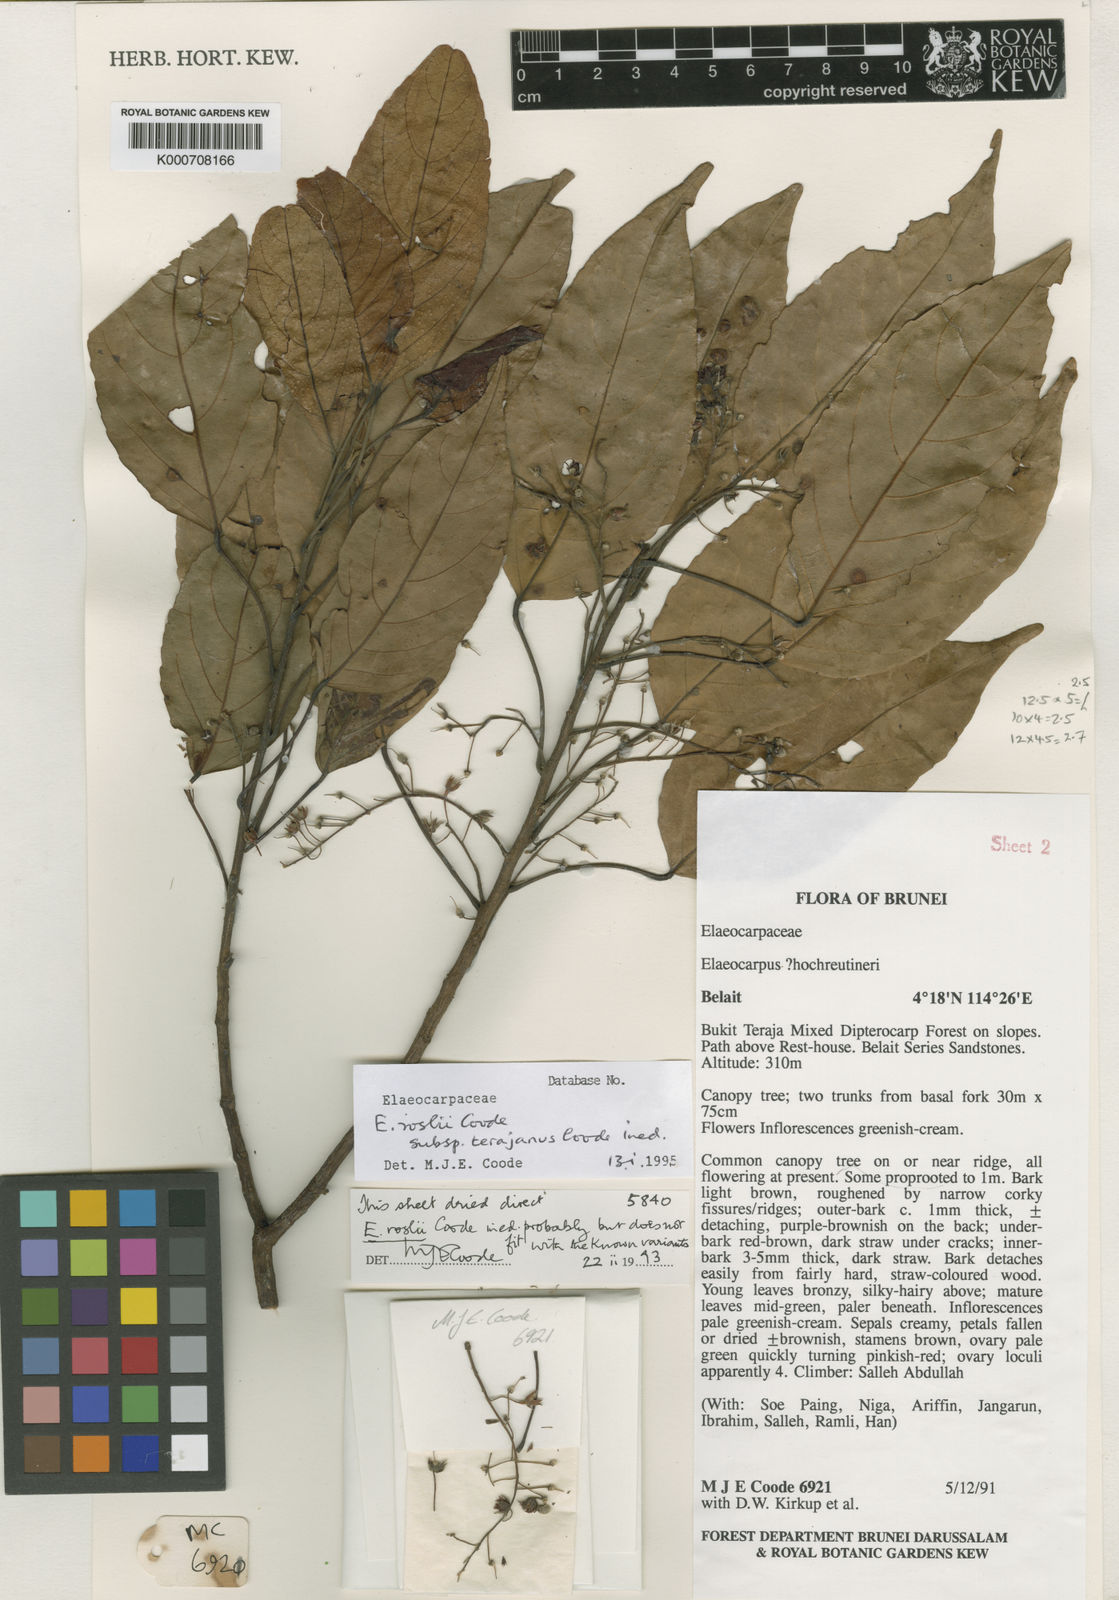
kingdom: Plantae
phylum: Tracheophyta
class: Magnoliopsida
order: Oxalidales
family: Elaeocarpaceae
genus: Elaeocarpus
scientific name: Elaeocarpus roslii
